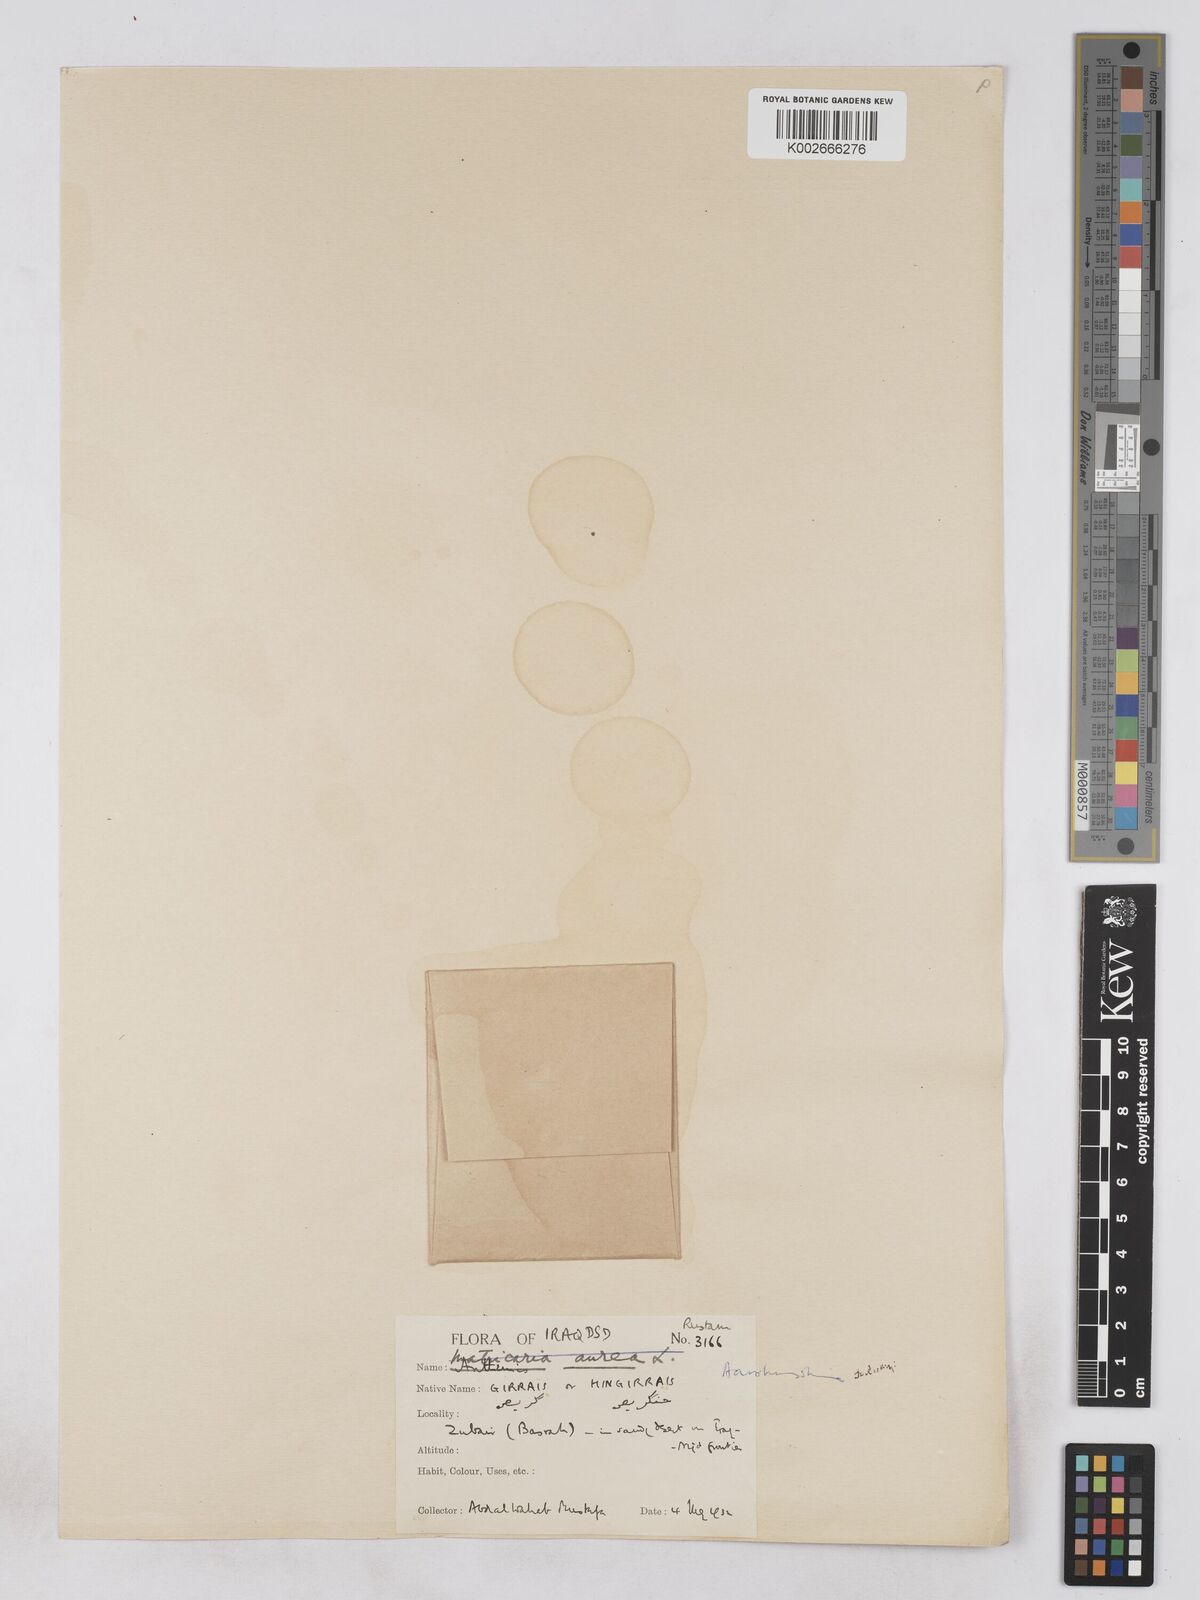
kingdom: Plantae
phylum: Tracheophyta
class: Magnoliopsida
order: Asterales
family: Asteraceae
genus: Otoglyphis
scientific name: Otoglyphis factorovskyi
